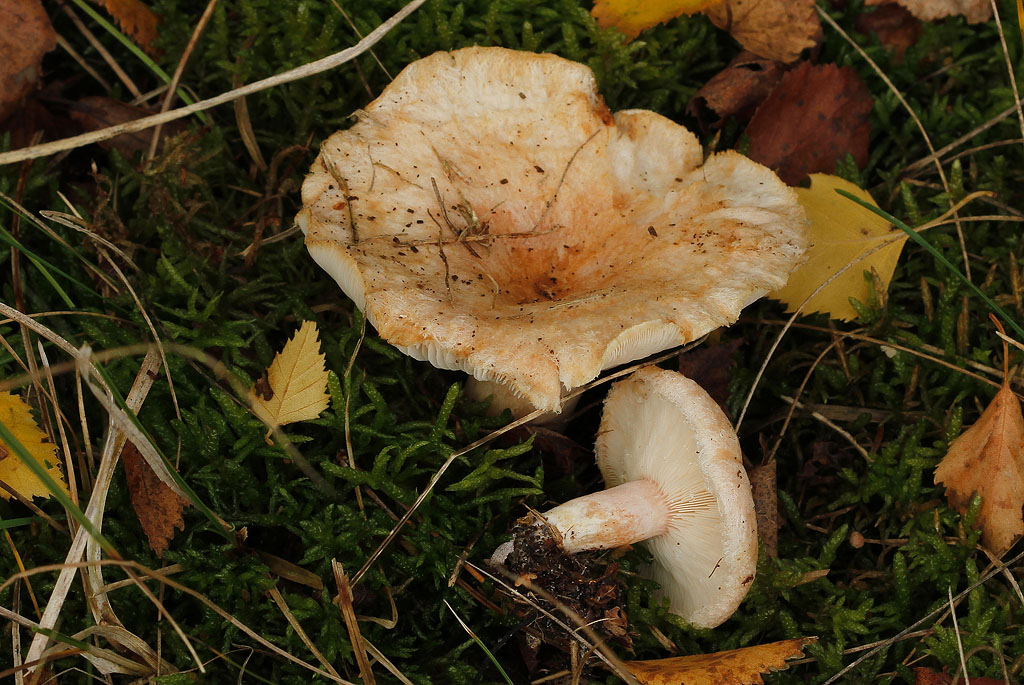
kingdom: Fungi
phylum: Basidiomycota
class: Agaricomycetes
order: Russulales
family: Russulaceae
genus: Lactarius
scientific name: Lactarius pubescens
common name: dunet mælkehat
